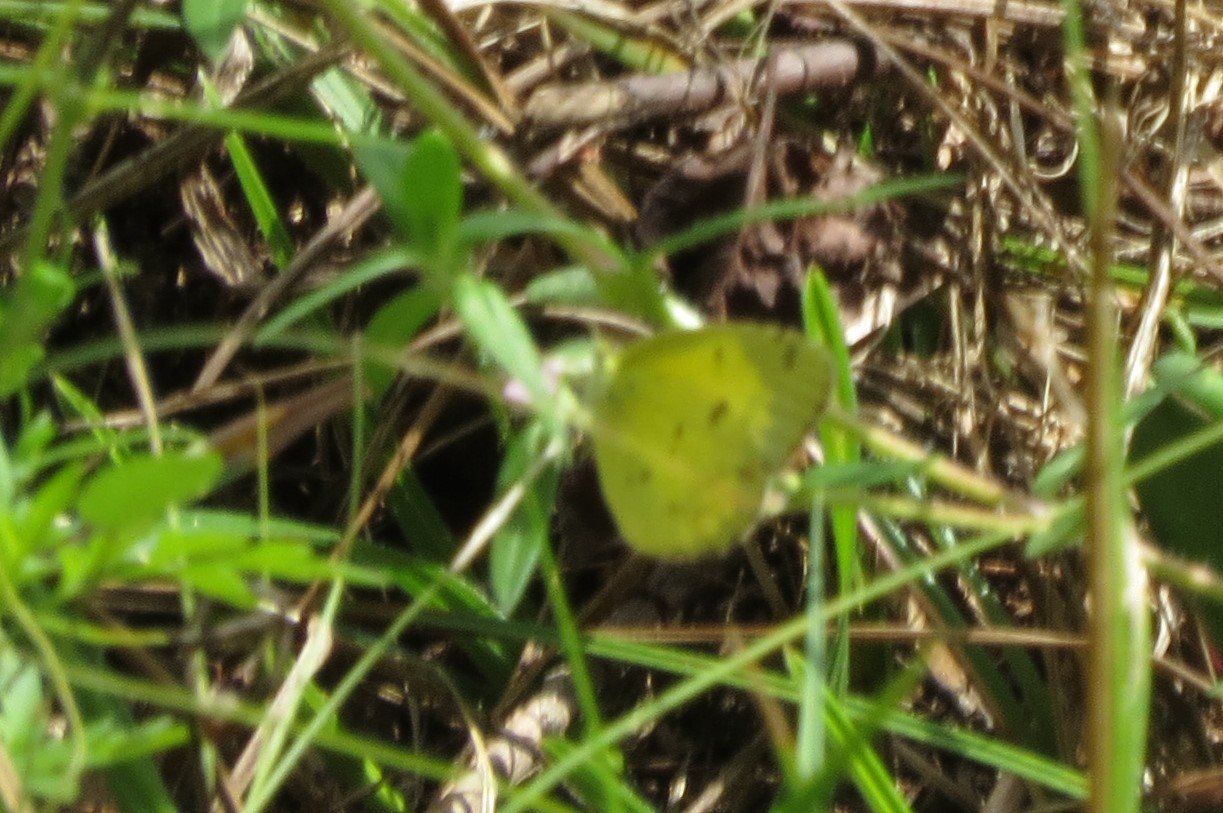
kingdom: Animalia
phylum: Arthropoda
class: Insecta
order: Lepidoptera
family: Pieridae
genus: Pyrisitia
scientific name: Pyrisitia lisa
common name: Little Yellow
